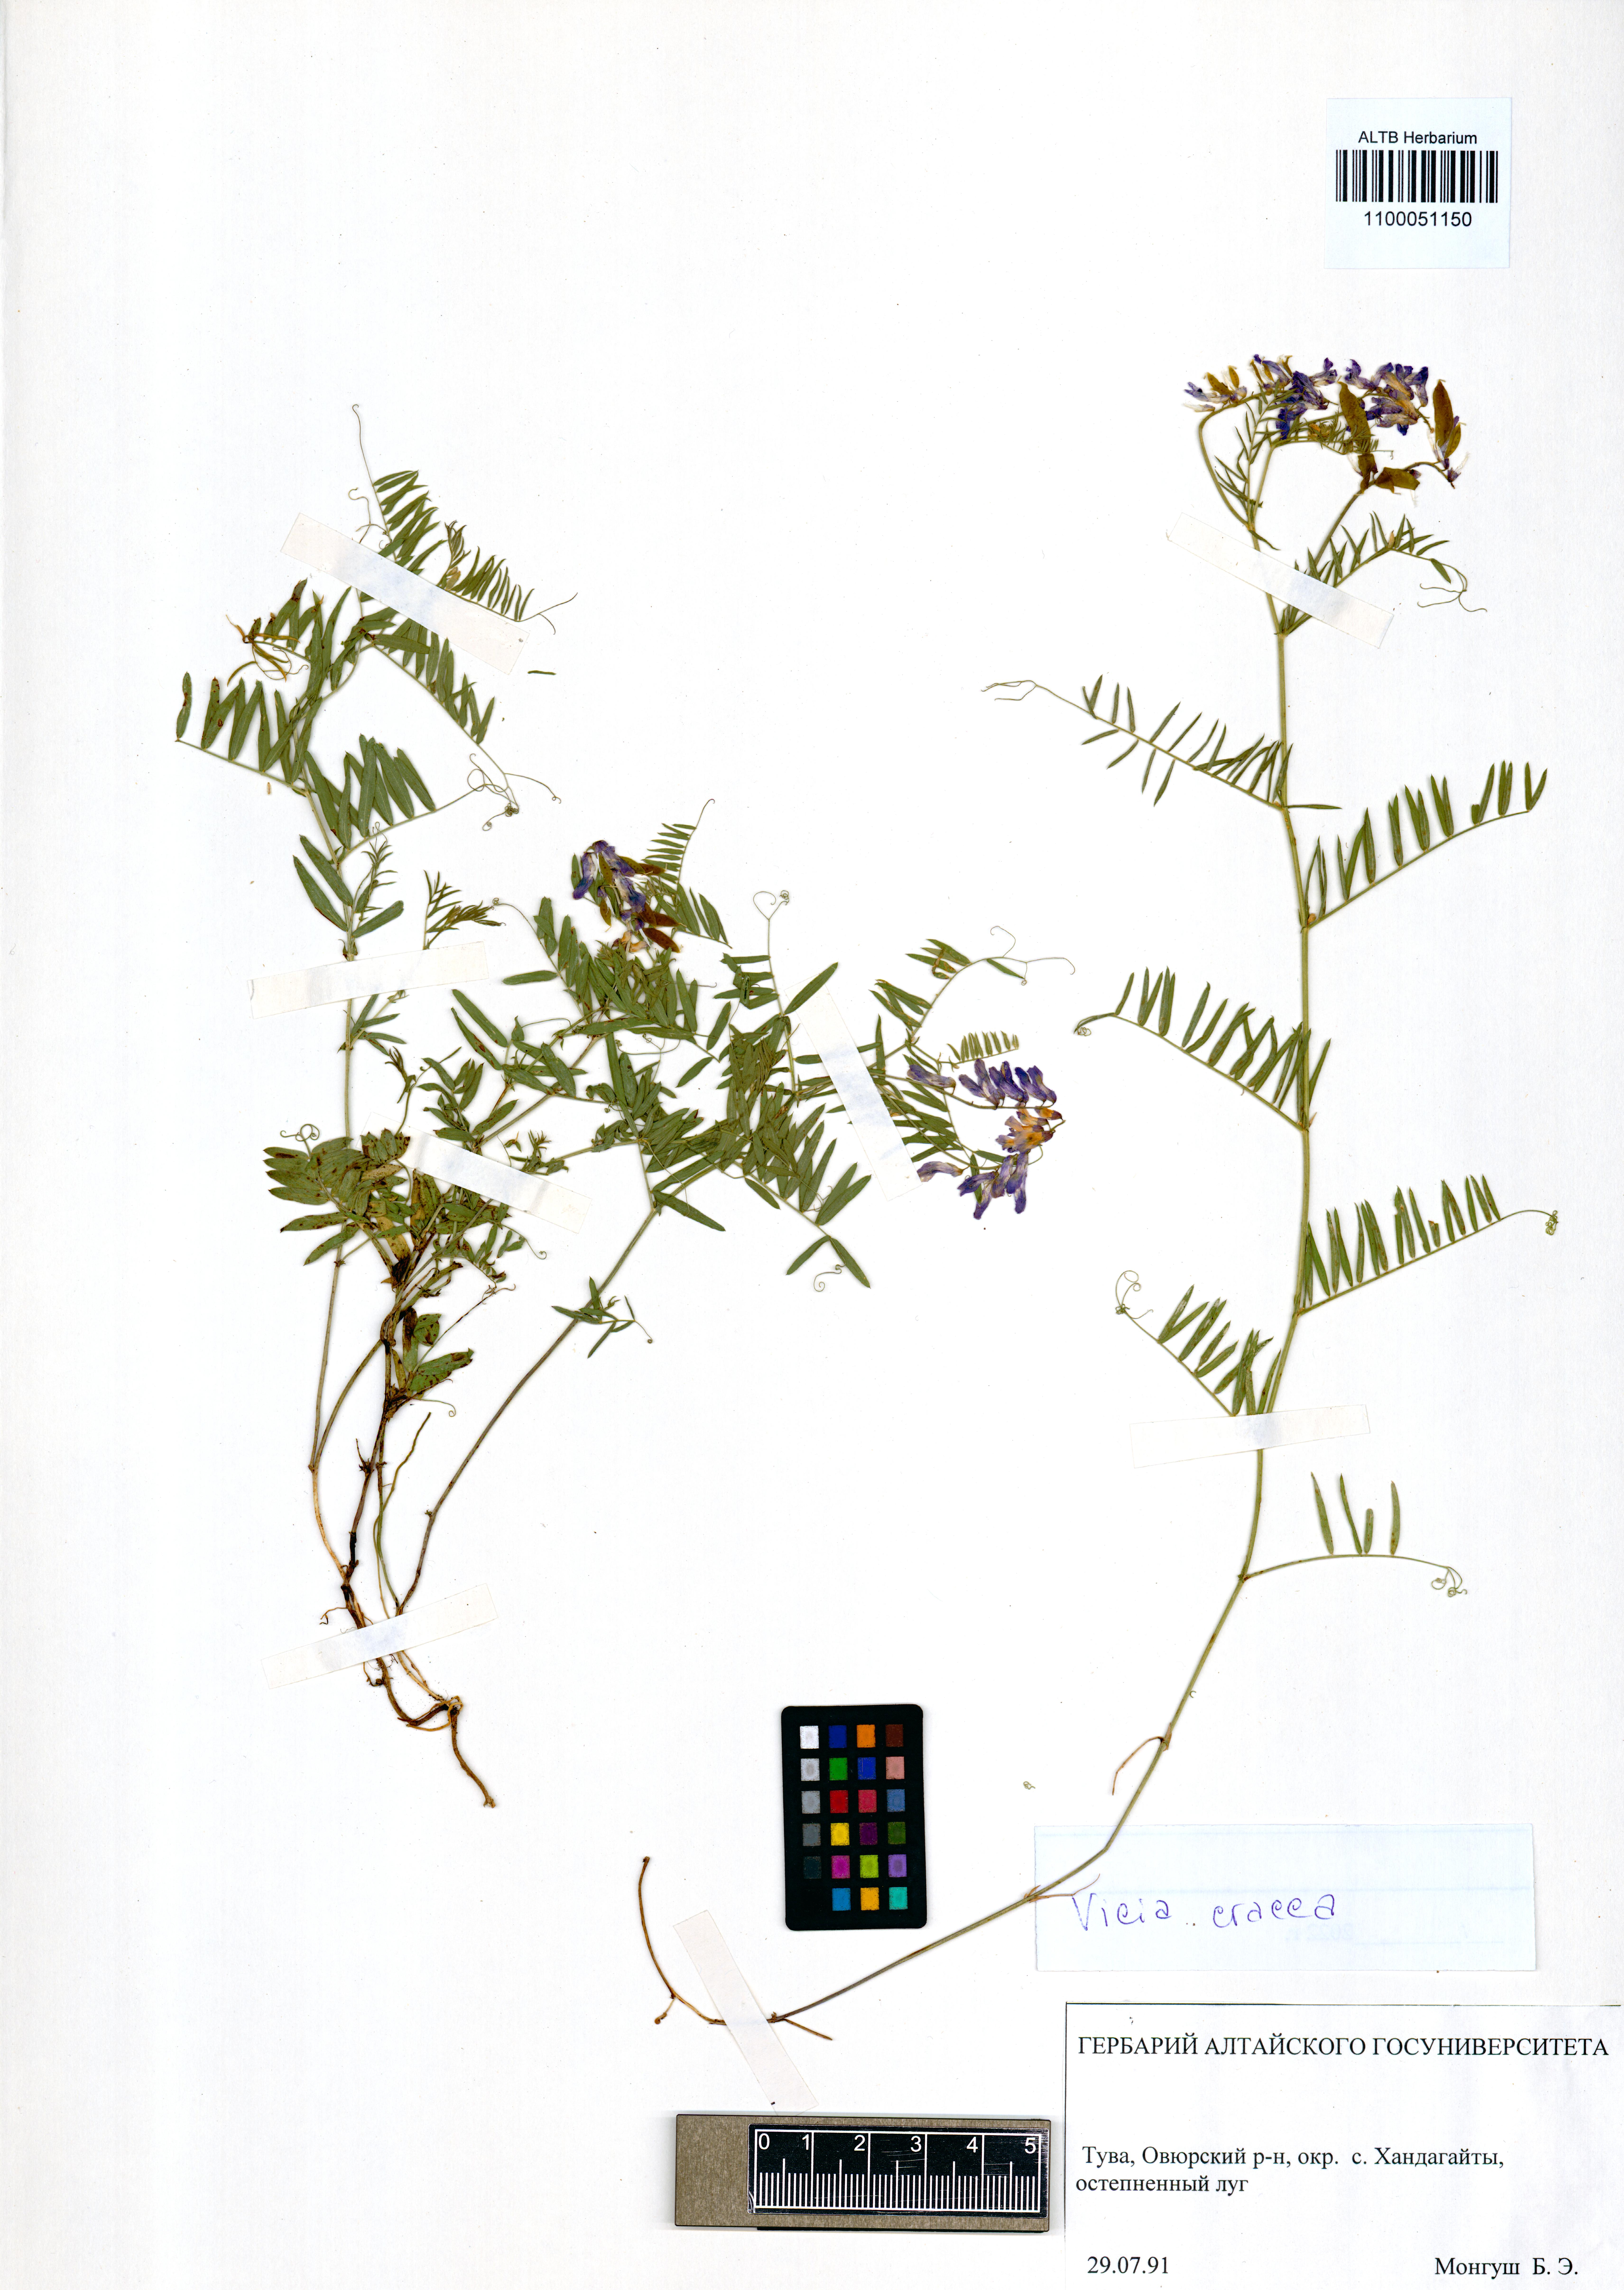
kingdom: Plantae
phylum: Tracheophyta
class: Magnoliopsida
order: Fabales
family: Fabaceae
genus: Vicia
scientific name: Vicia cracca
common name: Bird vetch
